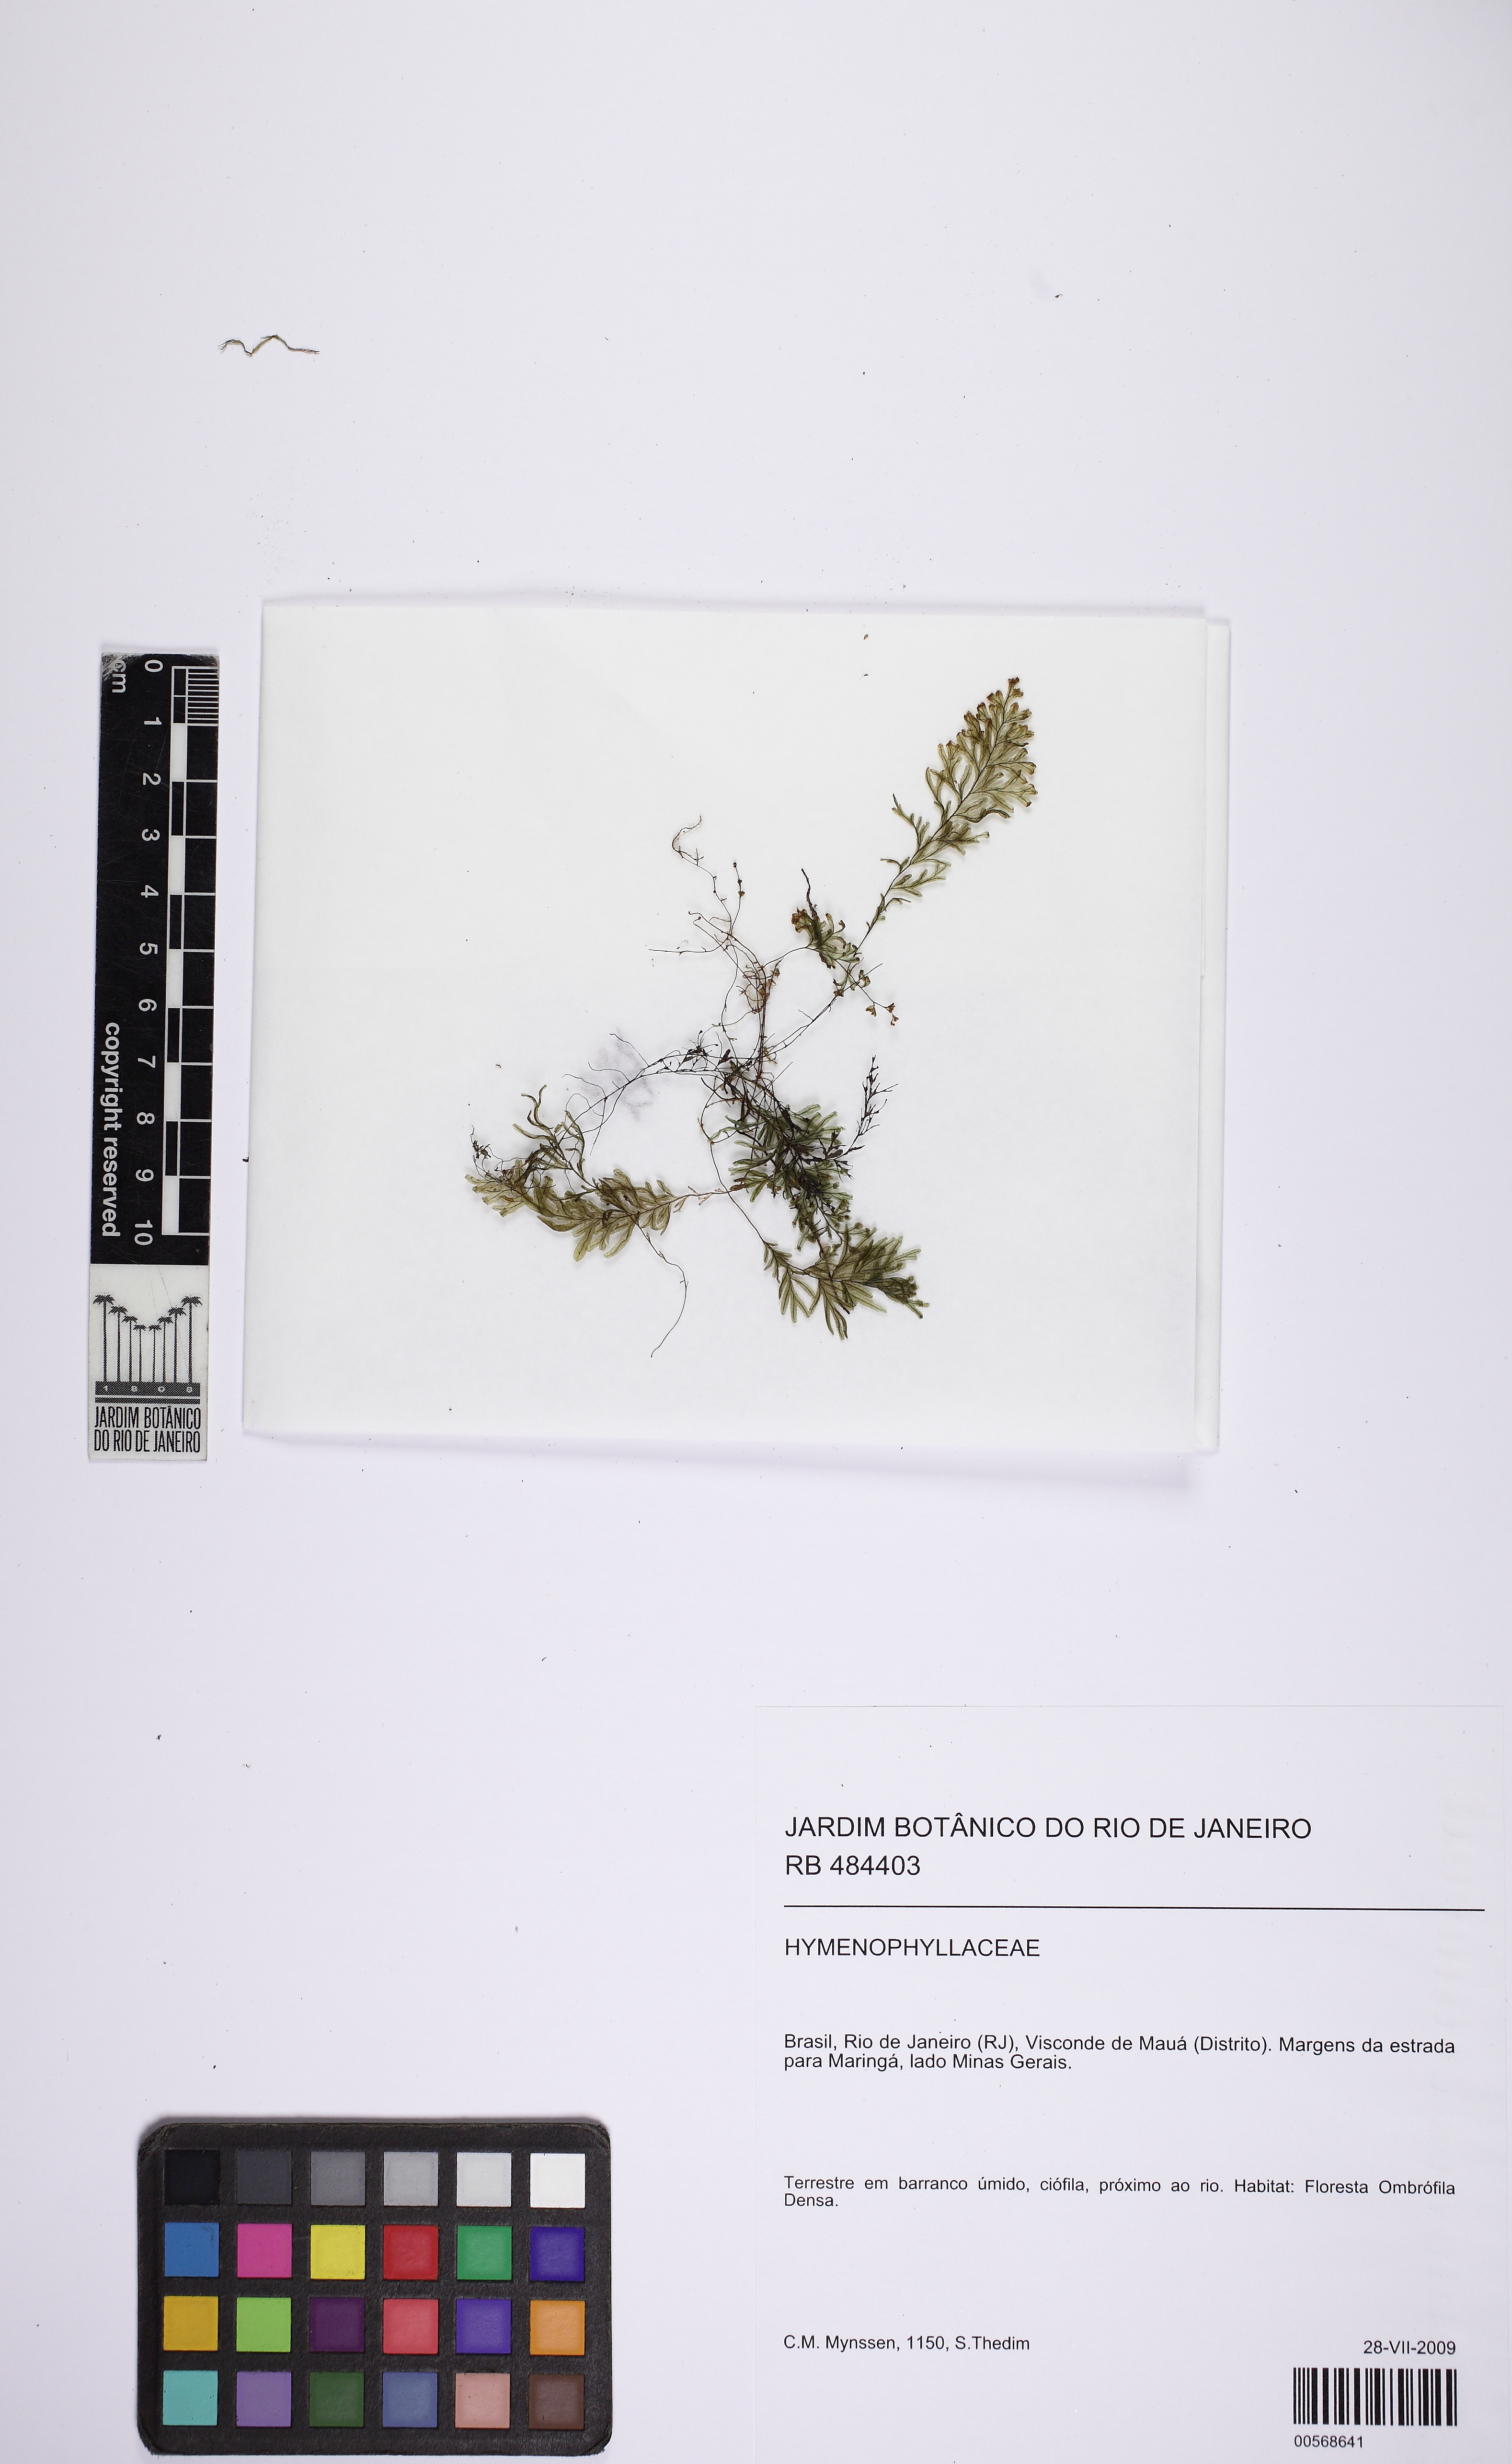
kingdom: Plantae
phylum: Tracheophyta
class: Polypodiopsida
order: Hymenophyllales
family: Hymenophyllaceae
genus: Hymenophyllum
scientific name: Hymenophyllum elegans
